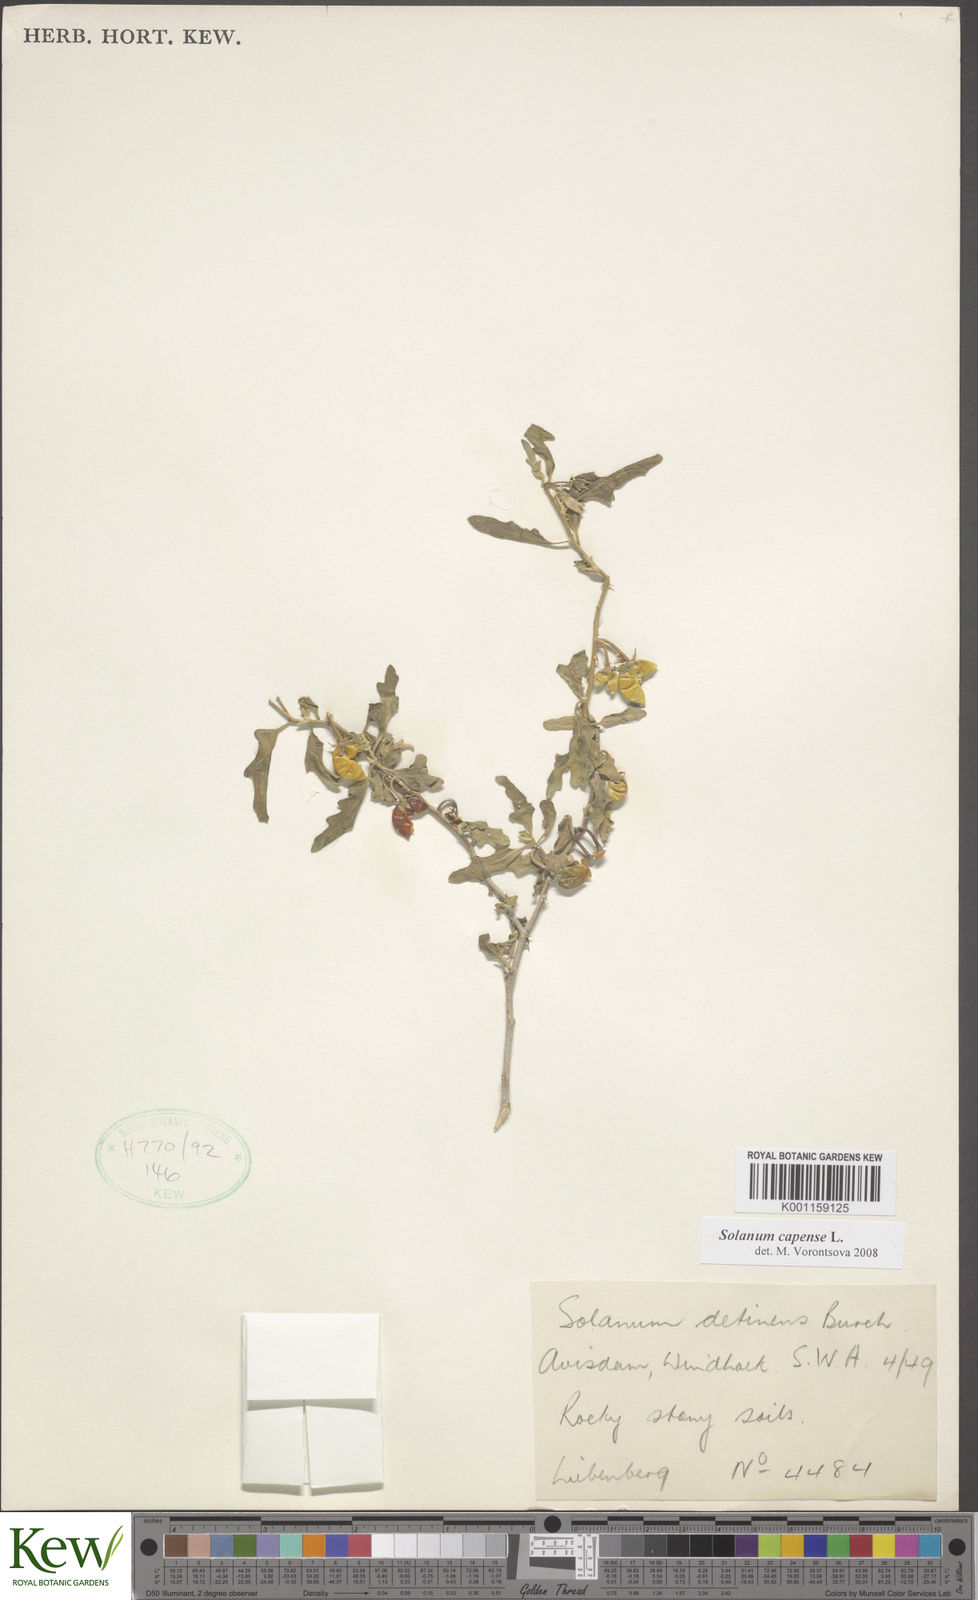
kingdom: Plantae
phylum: Tracheophyta
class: Magnoliopsida
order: Solanales
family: Solanaceae
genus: Solanum
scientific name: Solanum capense
